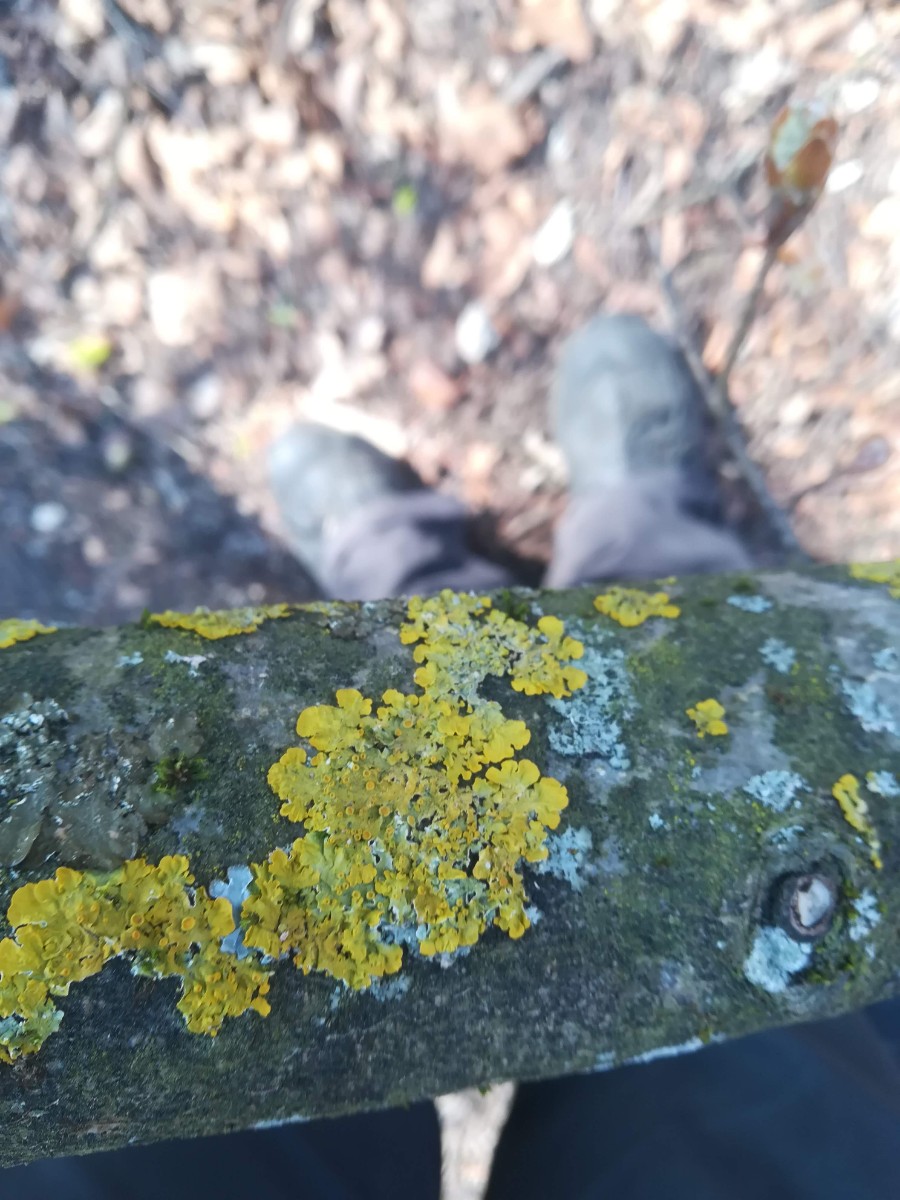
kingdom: Fungi
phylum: Ascomycota
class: Lecanoromycetes
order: Teloschistales
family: Teloschistaceae
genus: Xanthoria
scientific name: Xanthoria parietina
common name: almindelig væggelav
